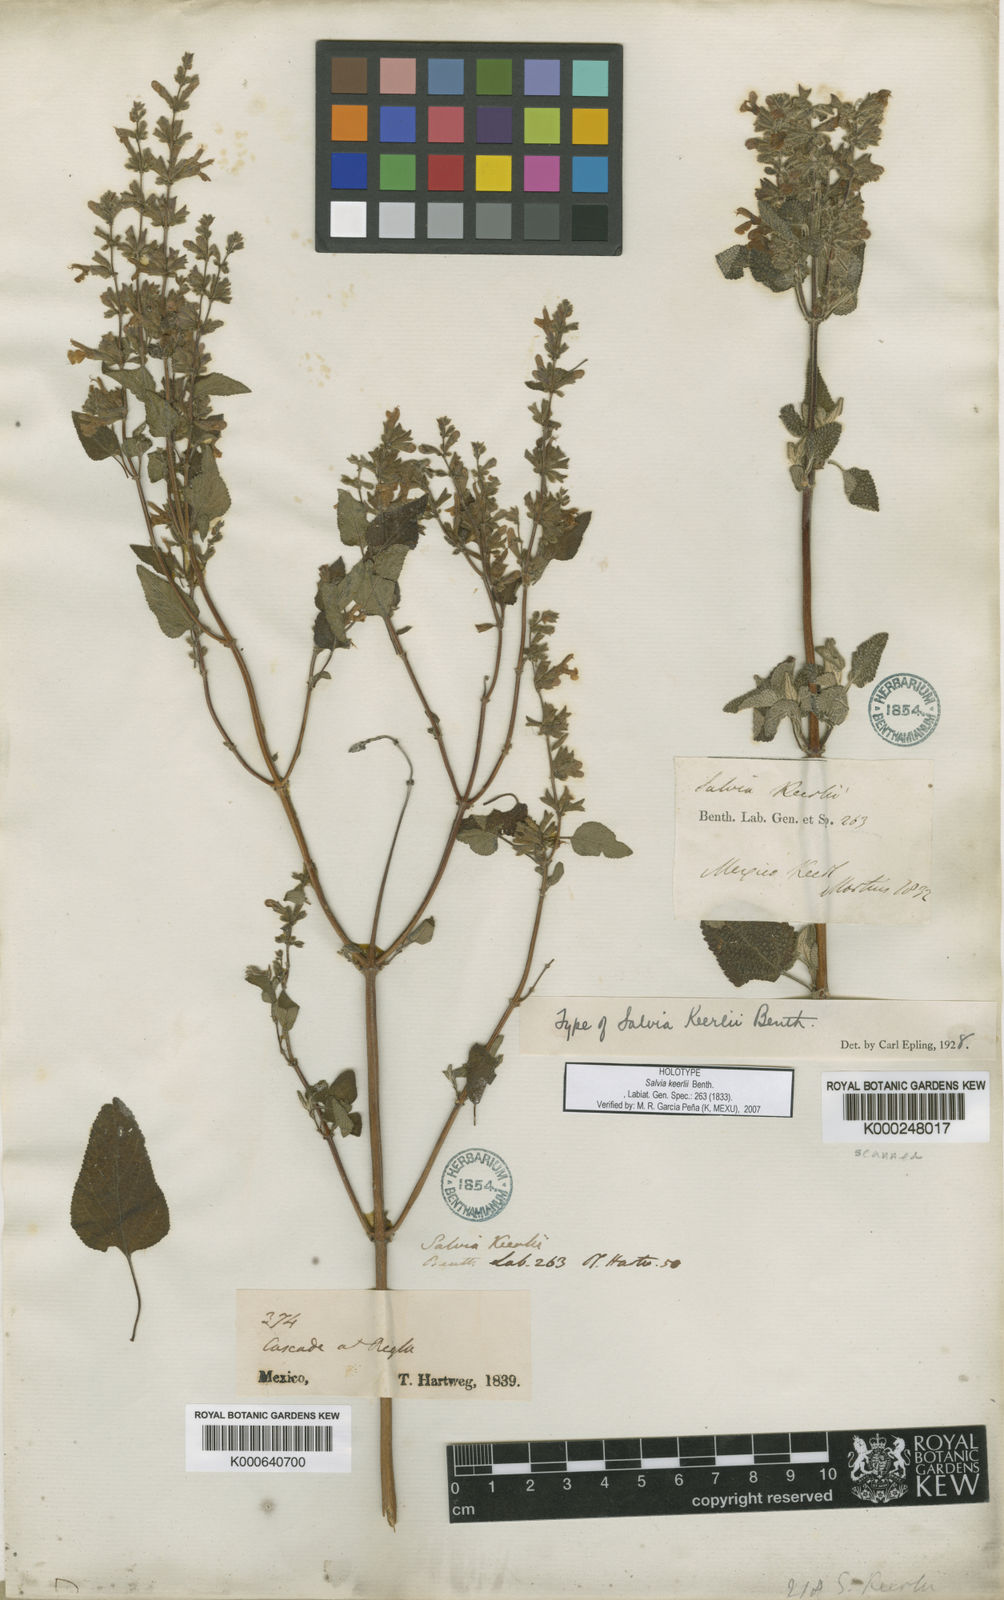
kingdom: Plantae
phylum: Tracheophyta
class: Magnoliopsida
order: Lamiales
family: Lamiaceae
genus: Salvia
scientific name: Salvia keerlii
